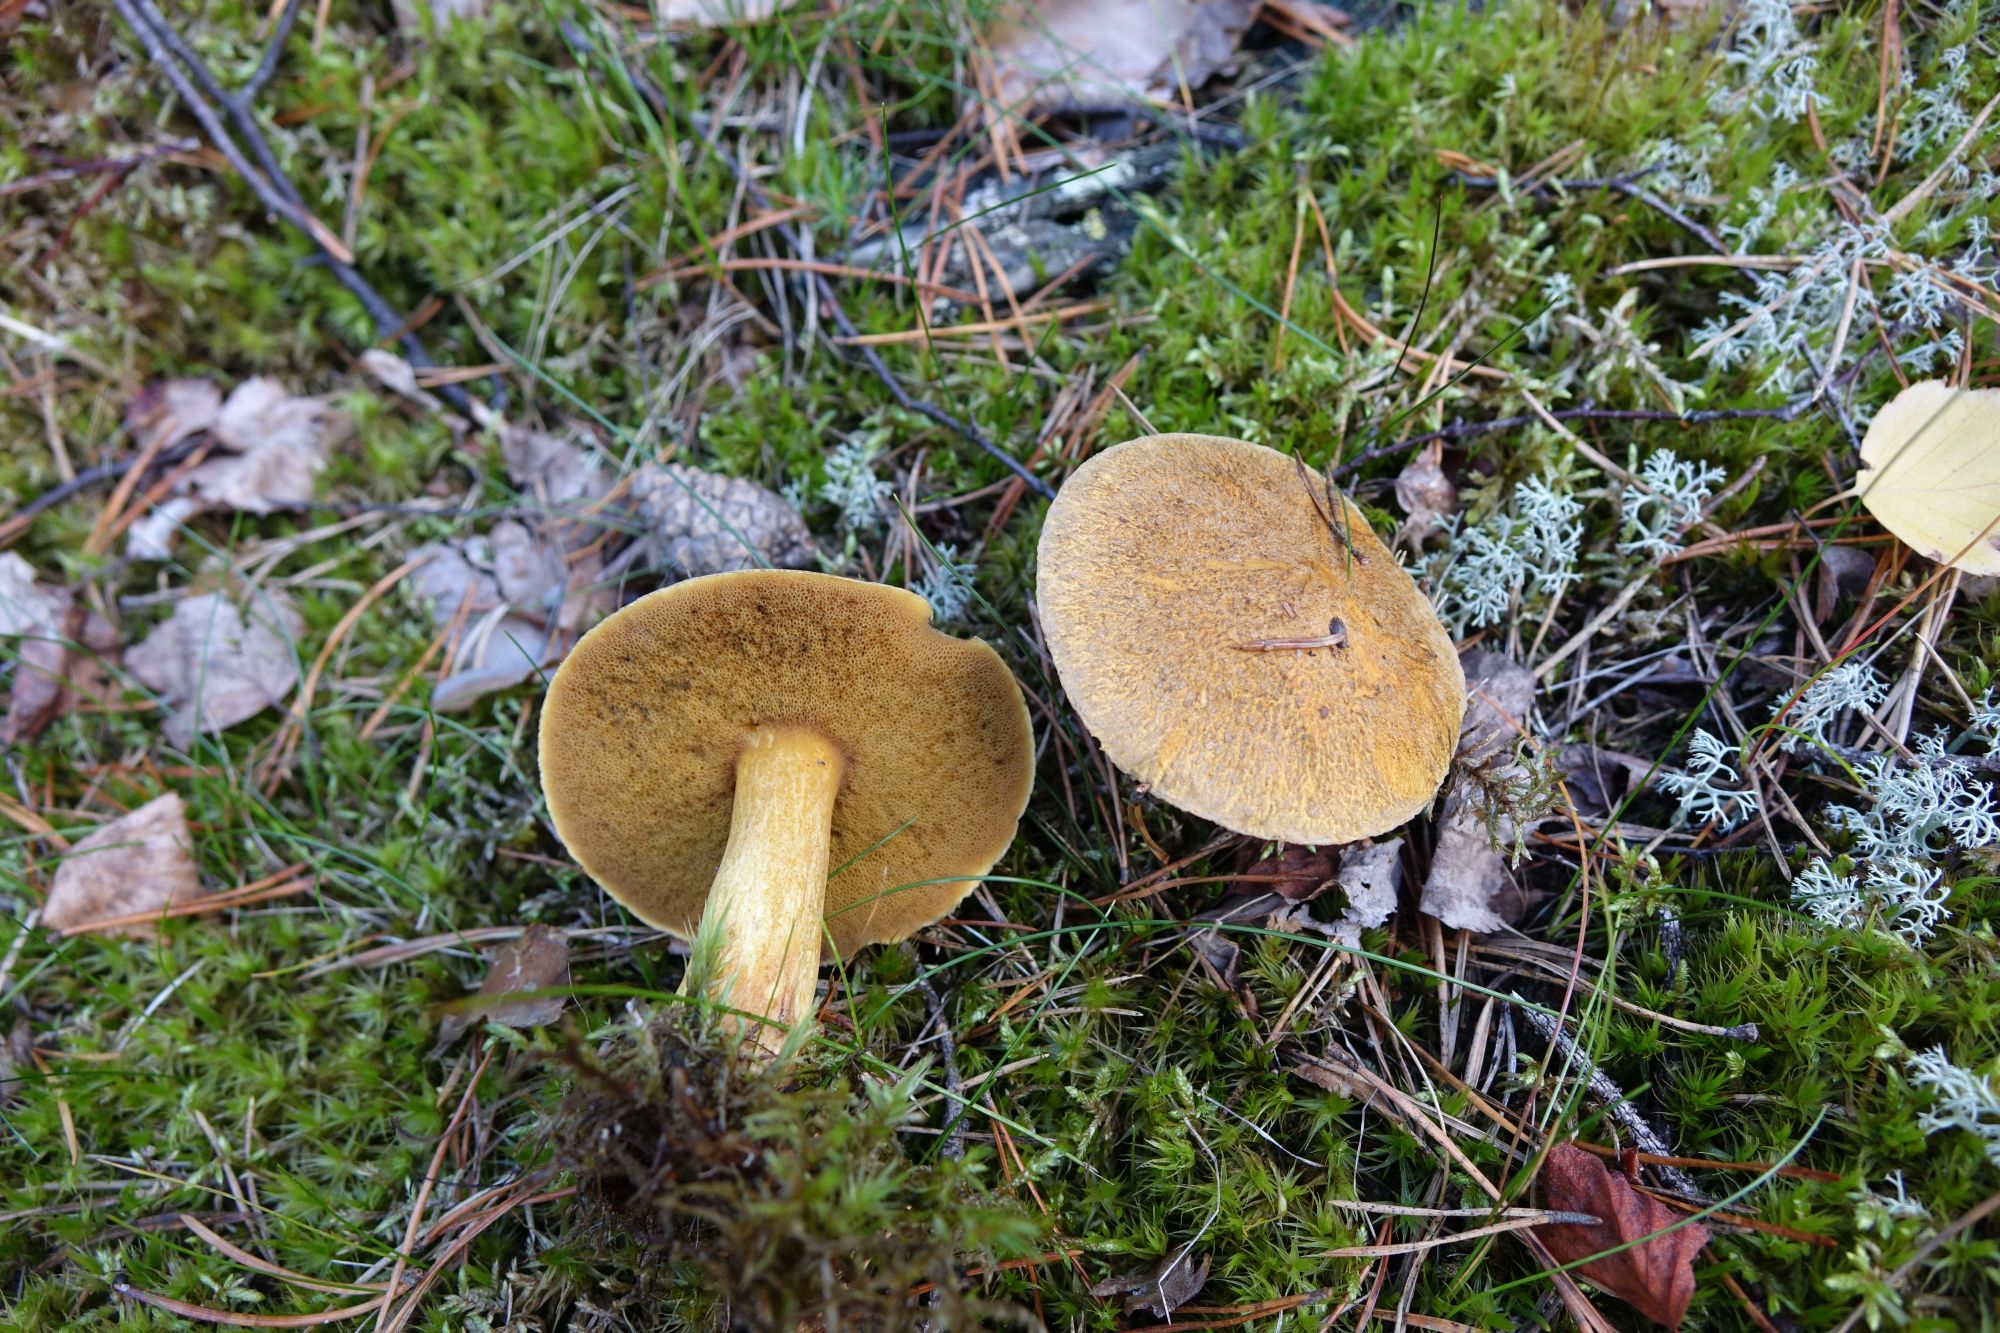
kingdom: Fungi
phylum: Basidiomycota
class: Agaricomycetes
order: Boletales
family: Suillaceae
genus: Suillus
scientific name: Suillus variegatus
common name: Velvet bolete
